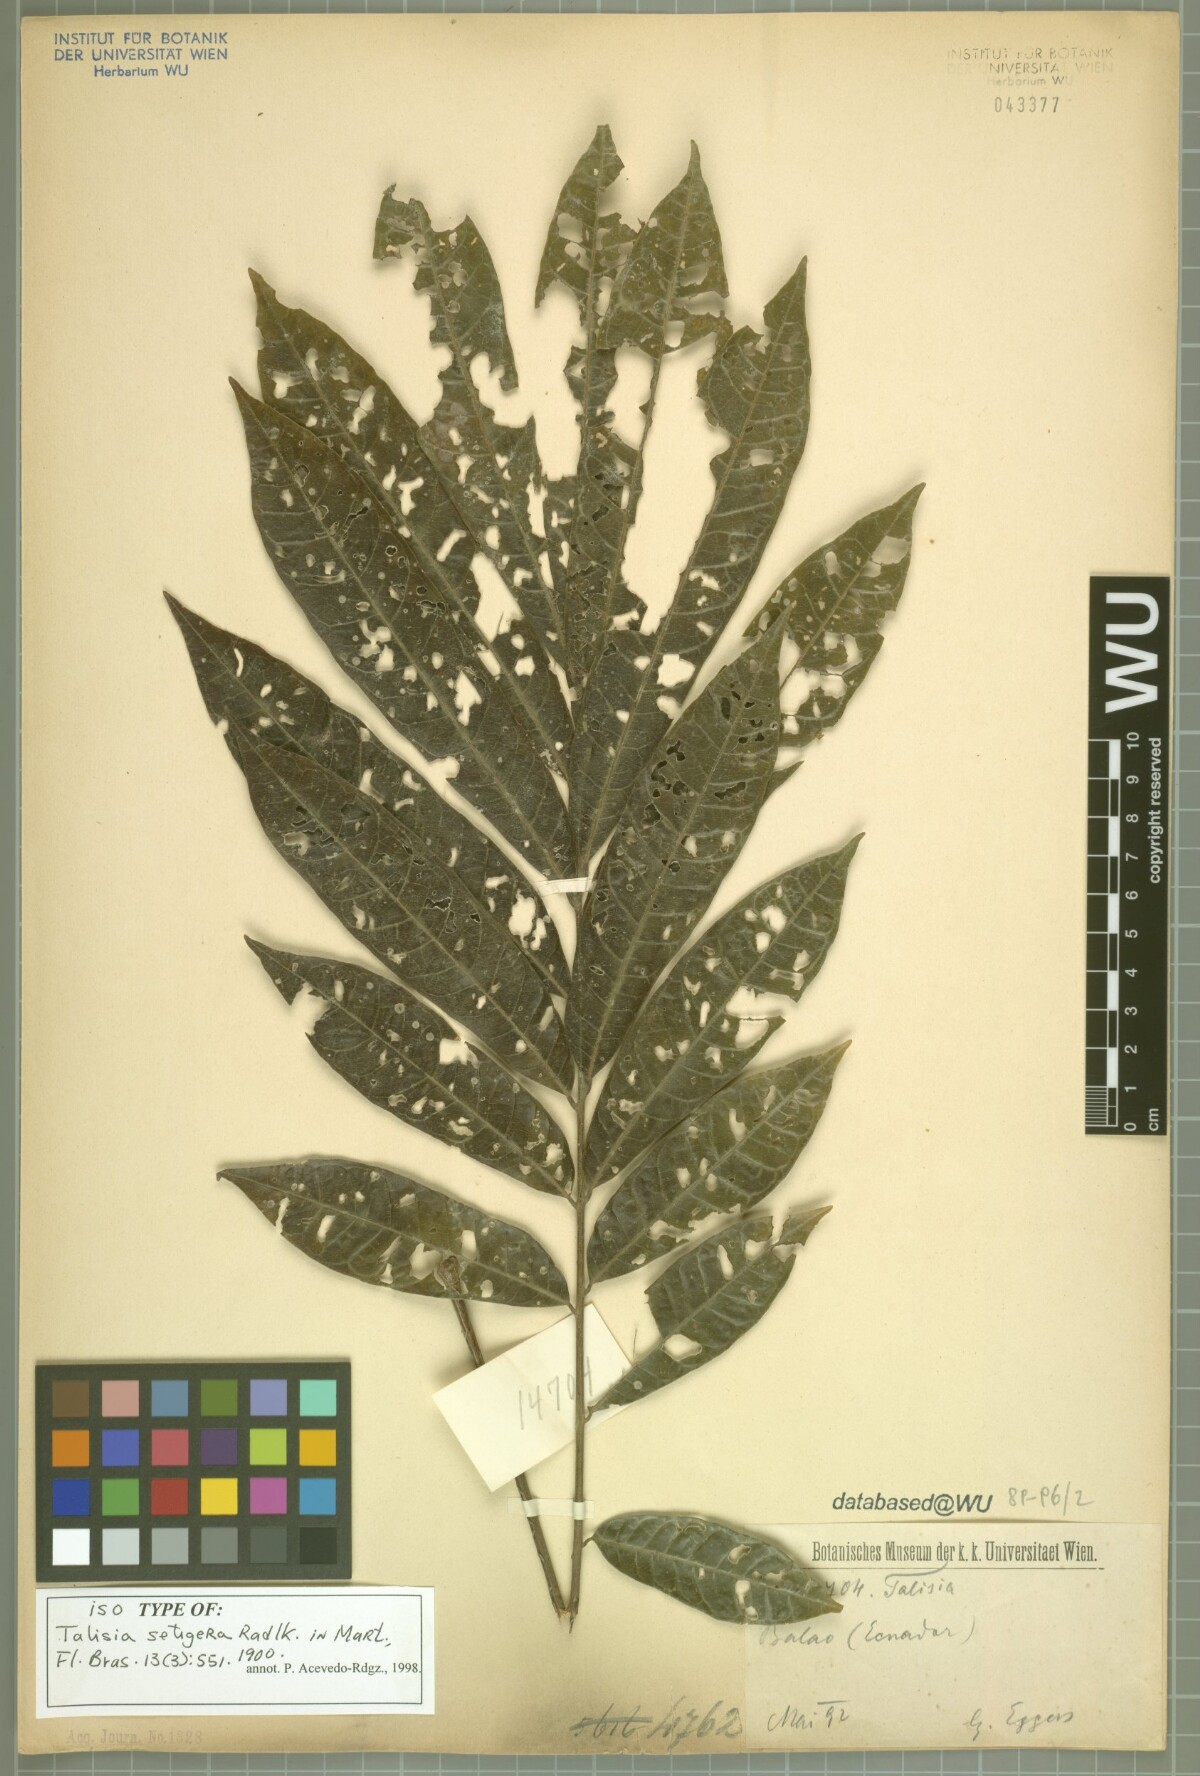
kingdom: Plantae
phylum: Tracheophyta
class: Magnoliopsida
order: Sapindales
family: Sapindaceae
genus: Talisia
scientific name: Talisia setigera
